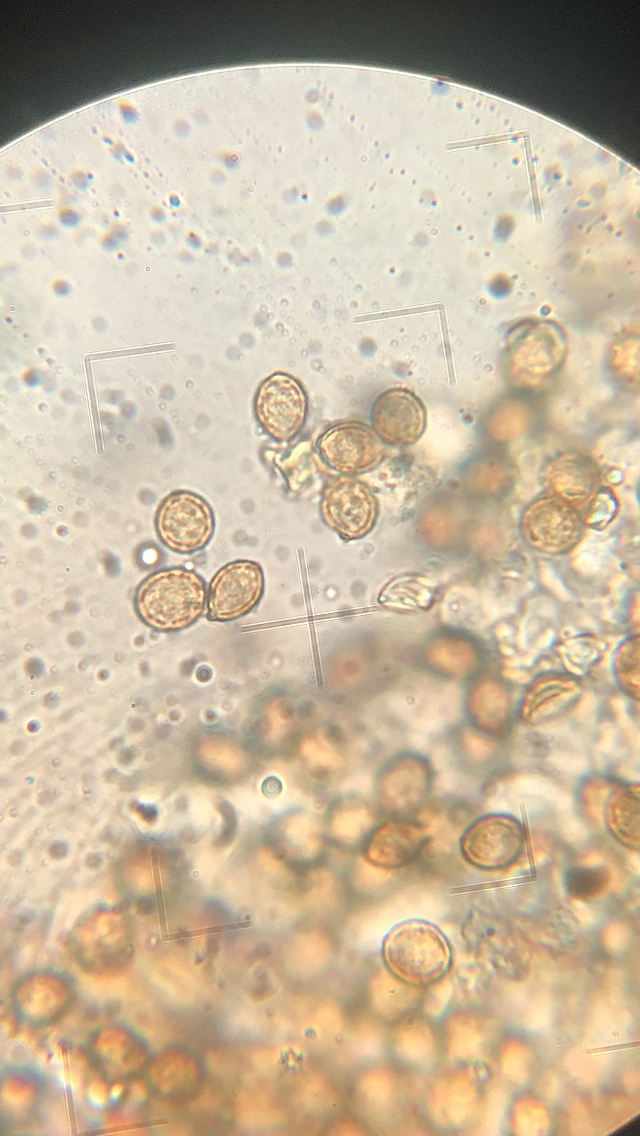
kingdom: Fungi
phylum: Basidiomycota
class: Agaricomycetes
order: Agaricales
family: Chromocyphellaceae
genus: Chromocyphella
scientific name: Chromocyphella muscicola
